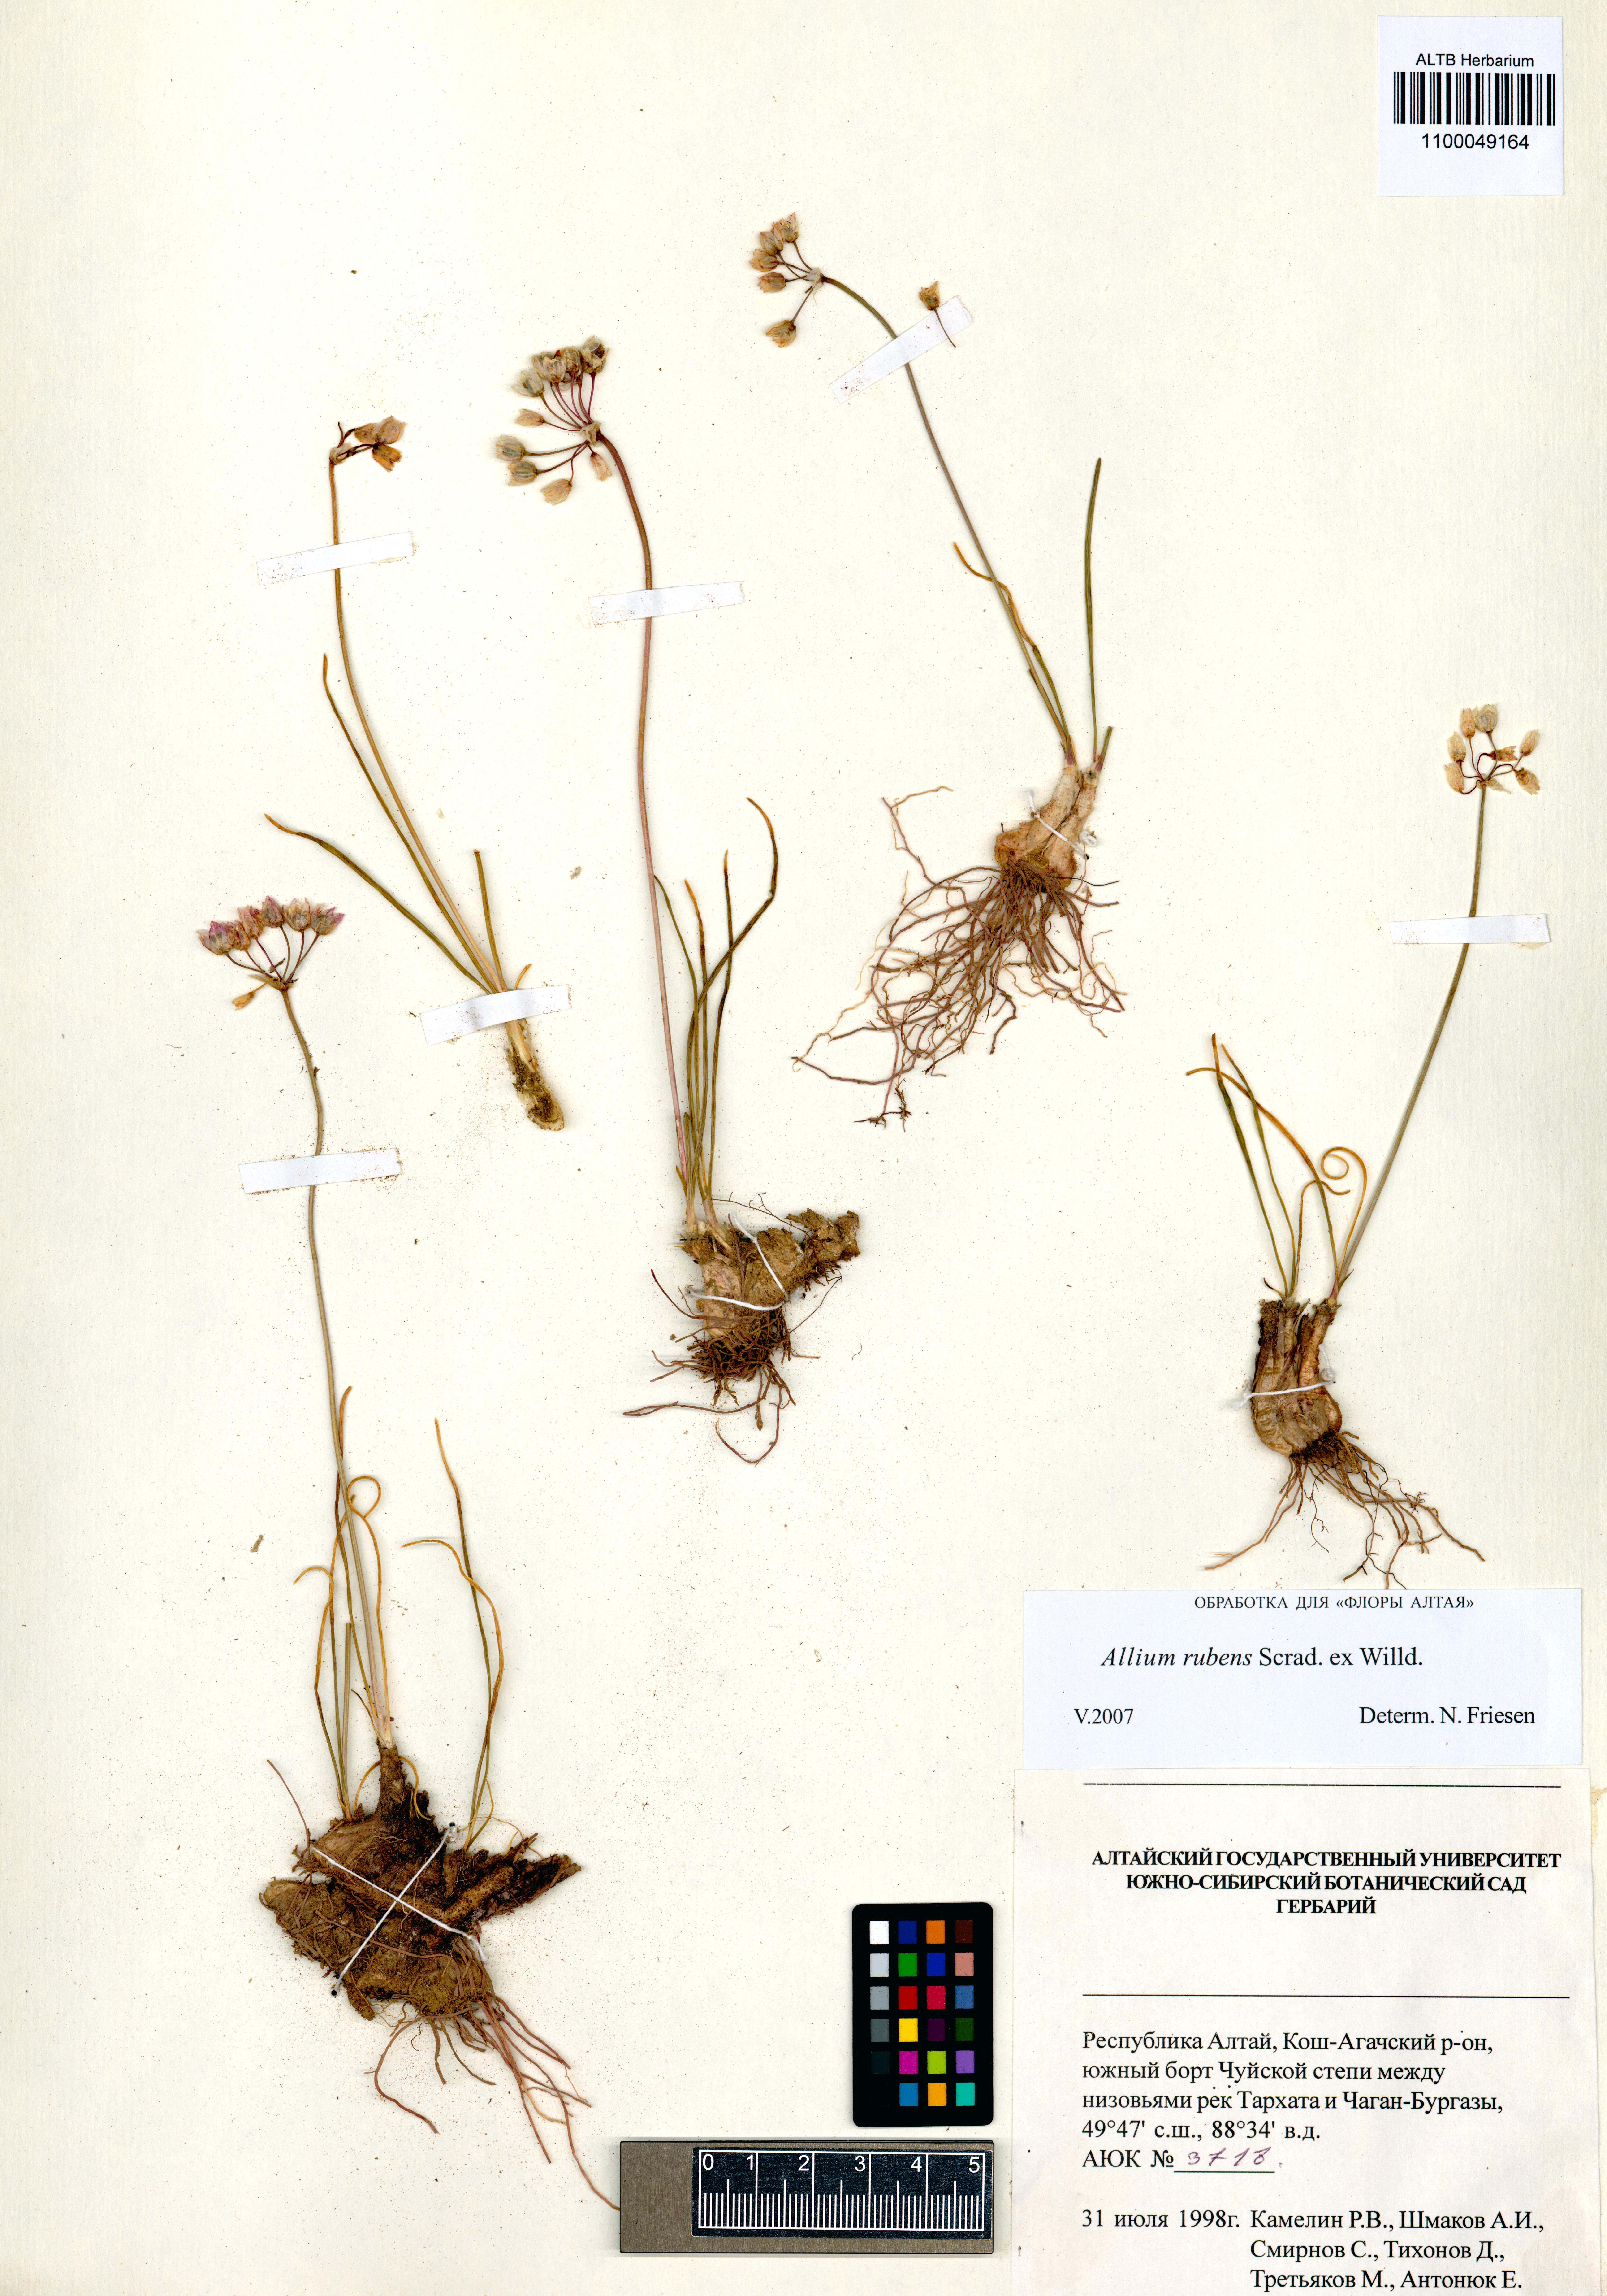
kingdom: Plantae
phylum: Tracheophyta
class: Liliopsida
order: Asparagales
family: Amaryllidaceae
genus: Allium
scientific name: Allium rubens
